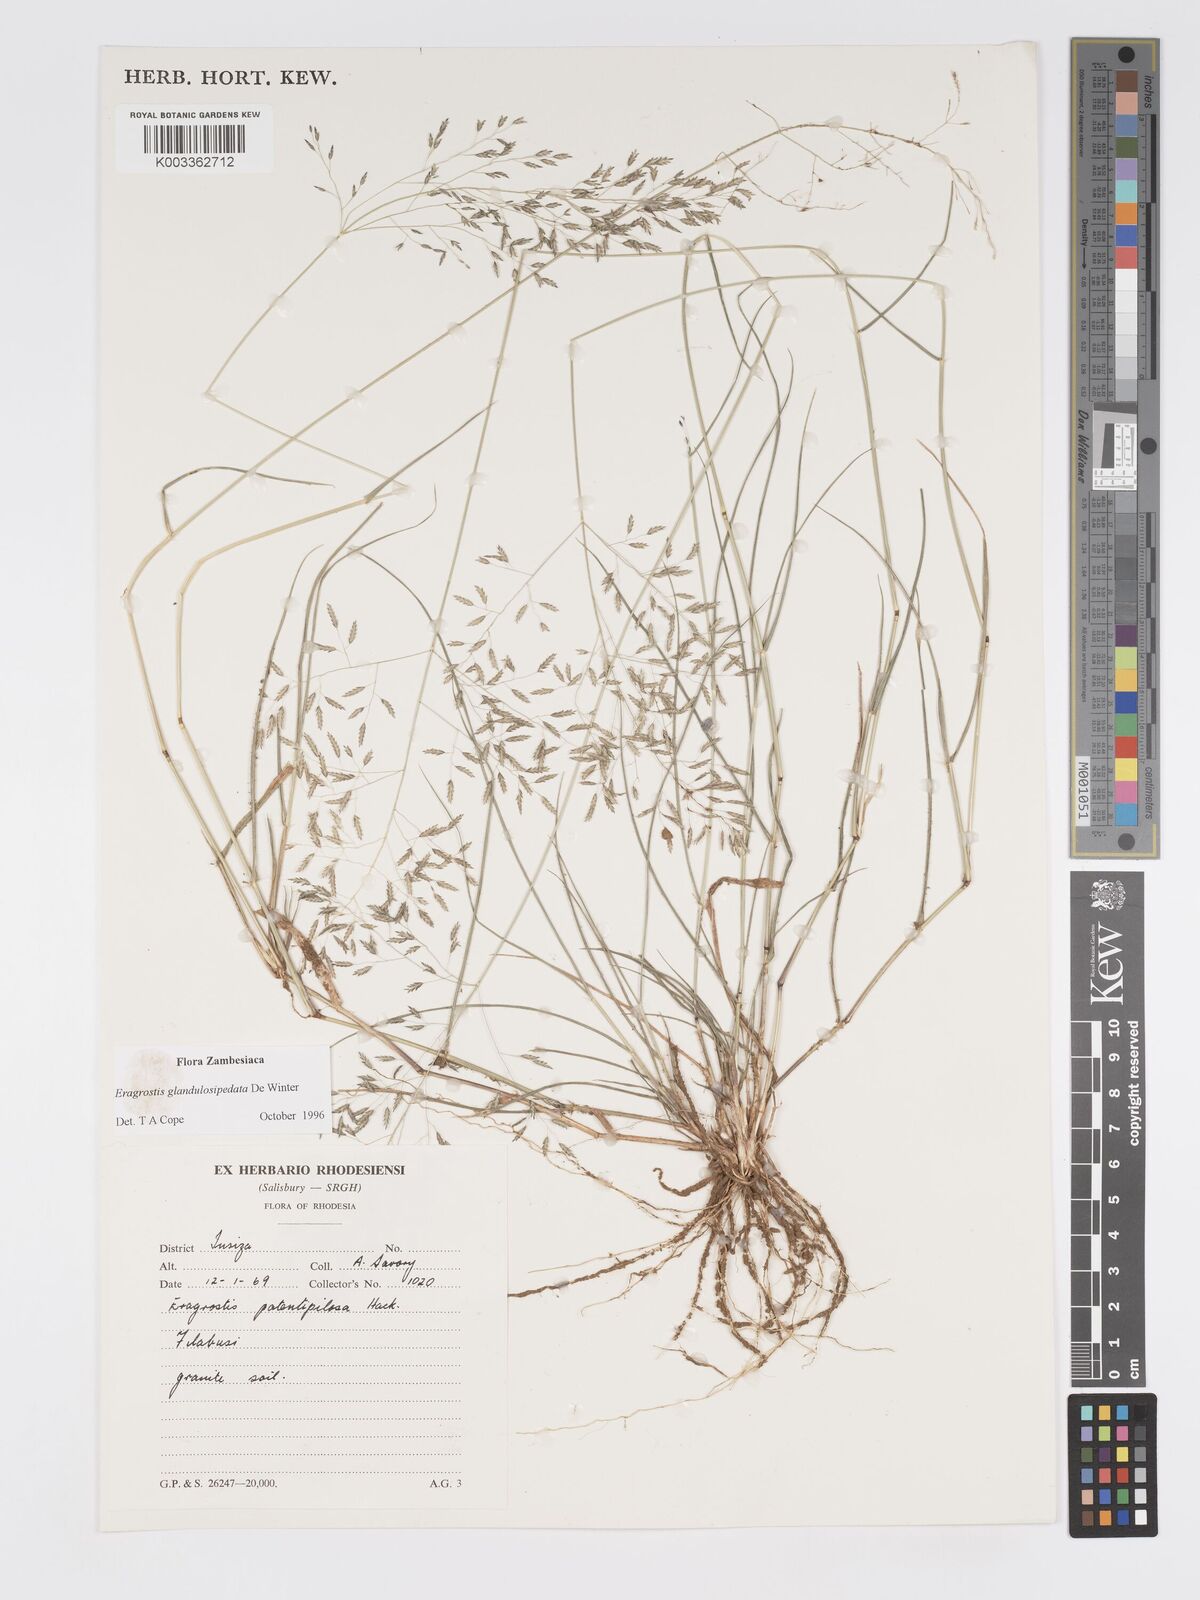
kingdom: Plantae
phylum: Tracheophyta
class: Liliopsida
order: Poales
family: Poaceae
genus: Eragrostis
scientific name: Eragrostis glandulosipedata
